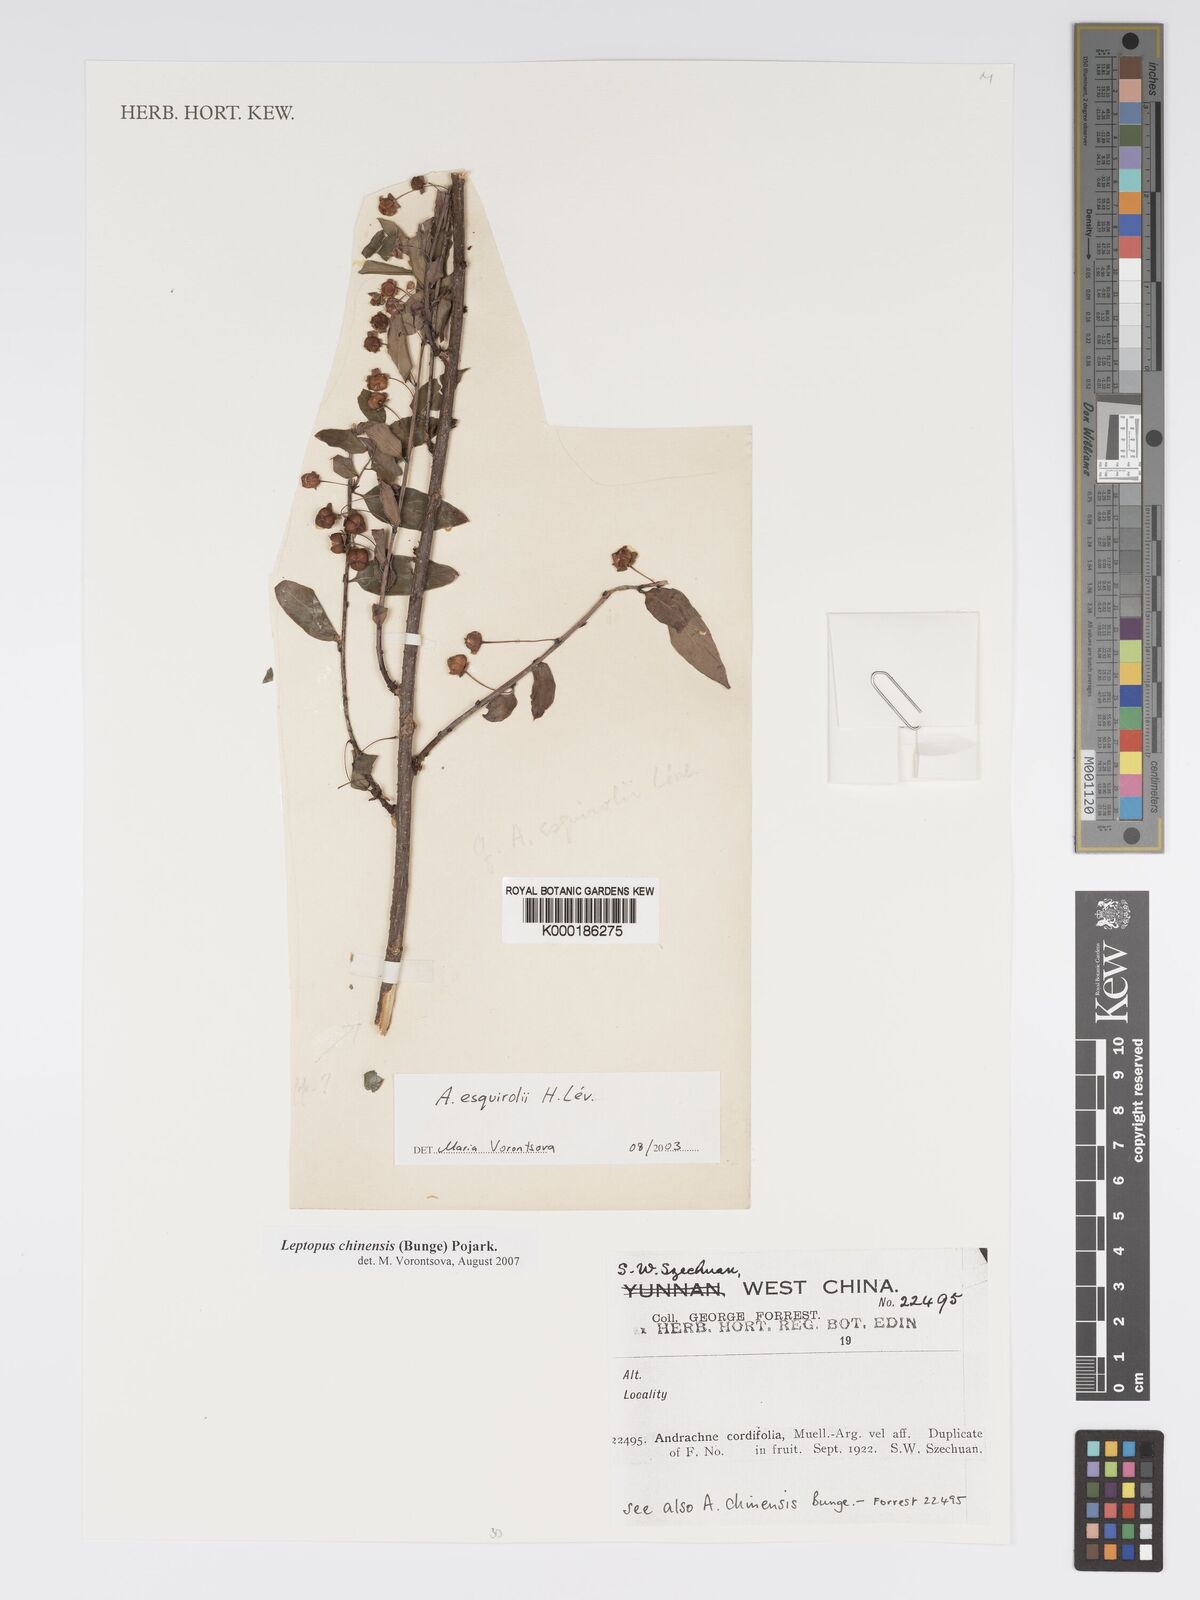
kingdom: Plantae
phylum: Tracheophyta
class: Magnoliopsida
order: Malpighiales
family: Phyllanthaceae
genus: Leptopus
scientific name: Leptopus clarkei
